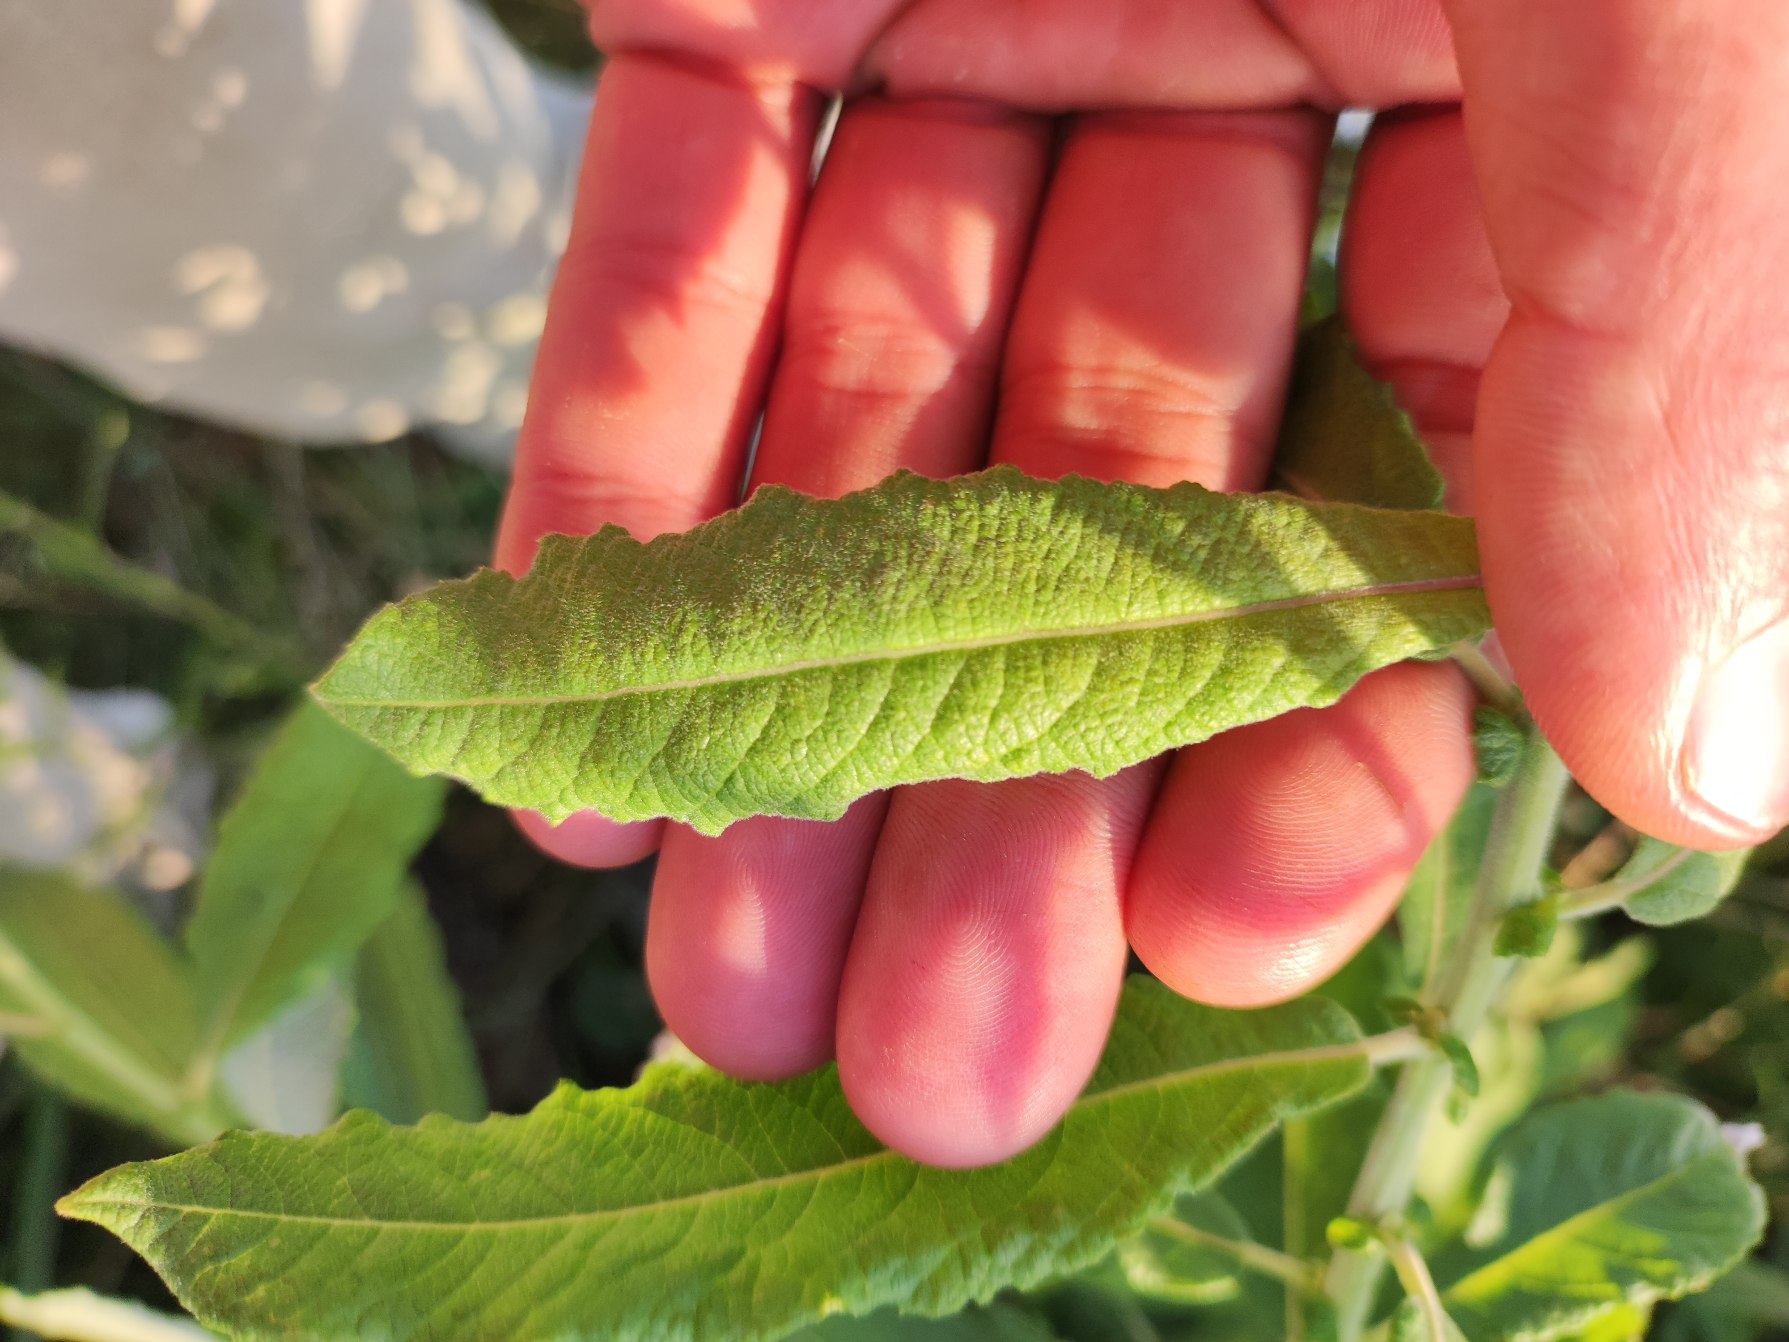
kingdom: Plantae
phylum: Tracheophyta
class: Magnoliopsida
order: Malpighiales
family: Salicaceae
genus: Salix
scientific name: Salix cinerea
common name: Grå-pil
